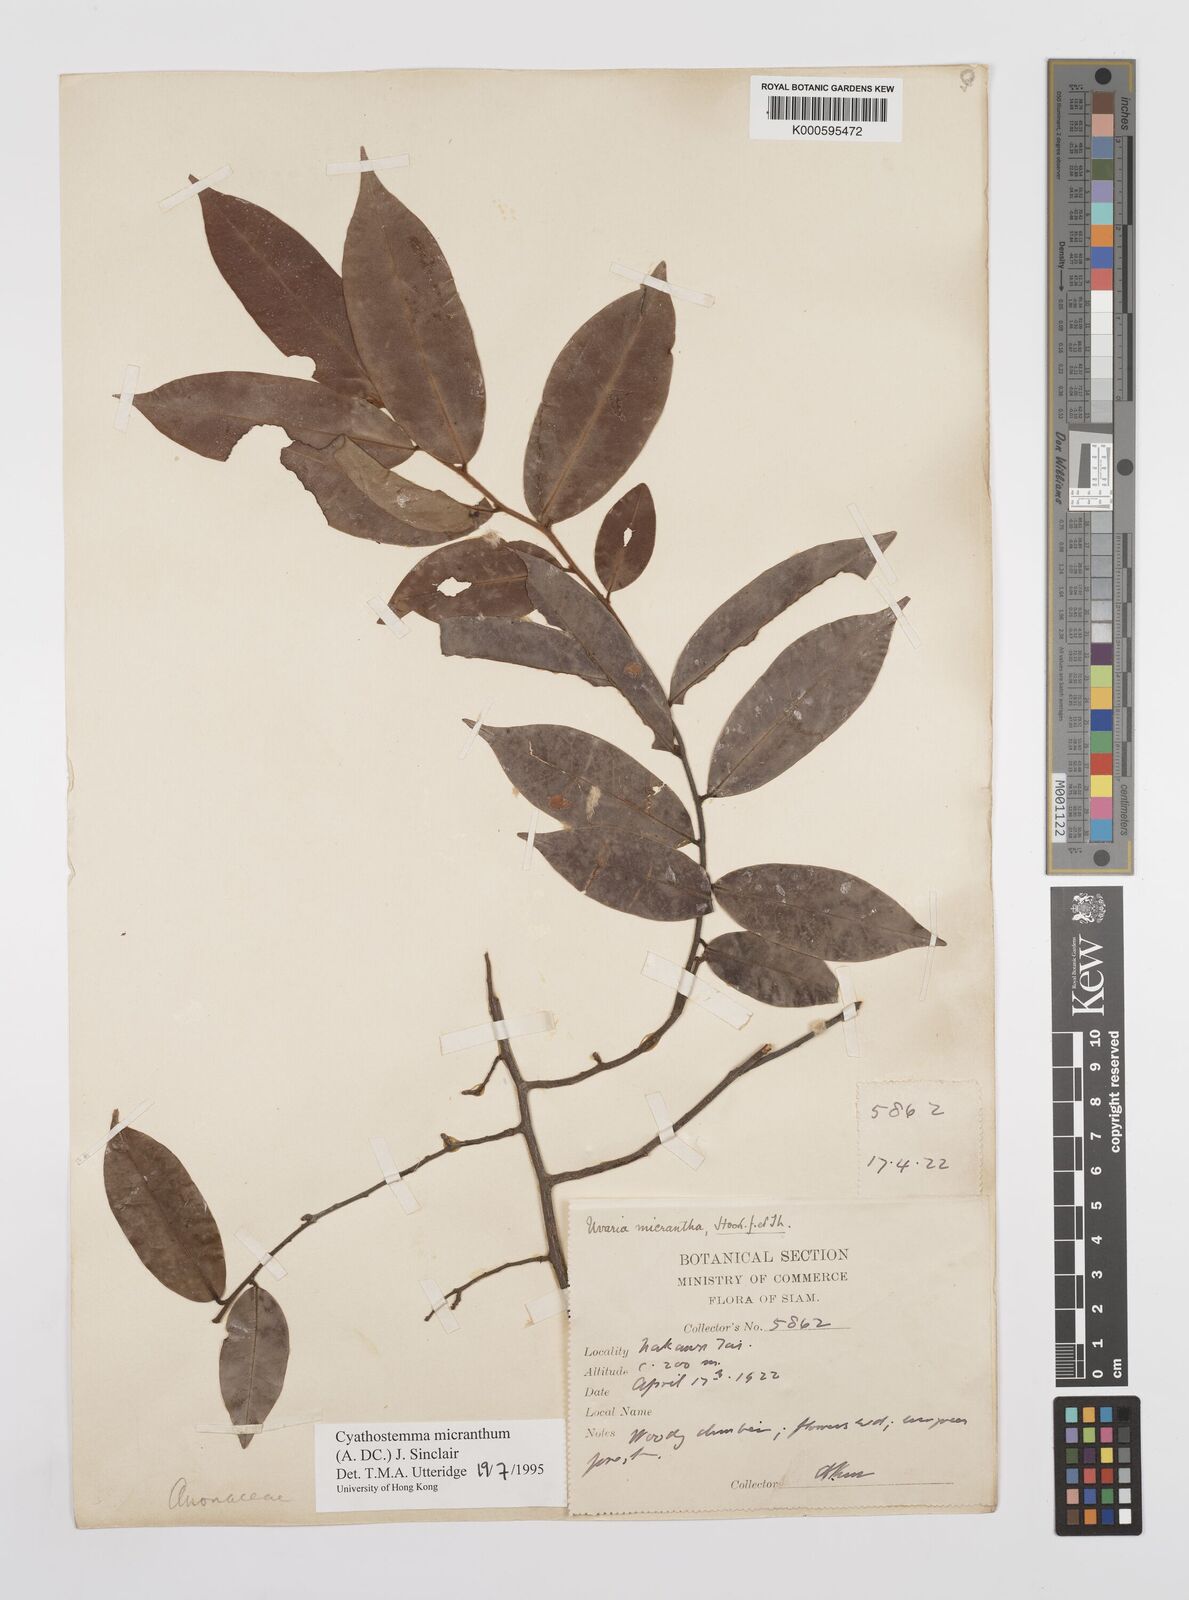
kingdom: Plantae
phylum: Tracheophyta
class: Magnoliopsida
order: Magnoliales
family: Annonaceae
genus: Uvaria
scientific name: Uvaria micrantha
